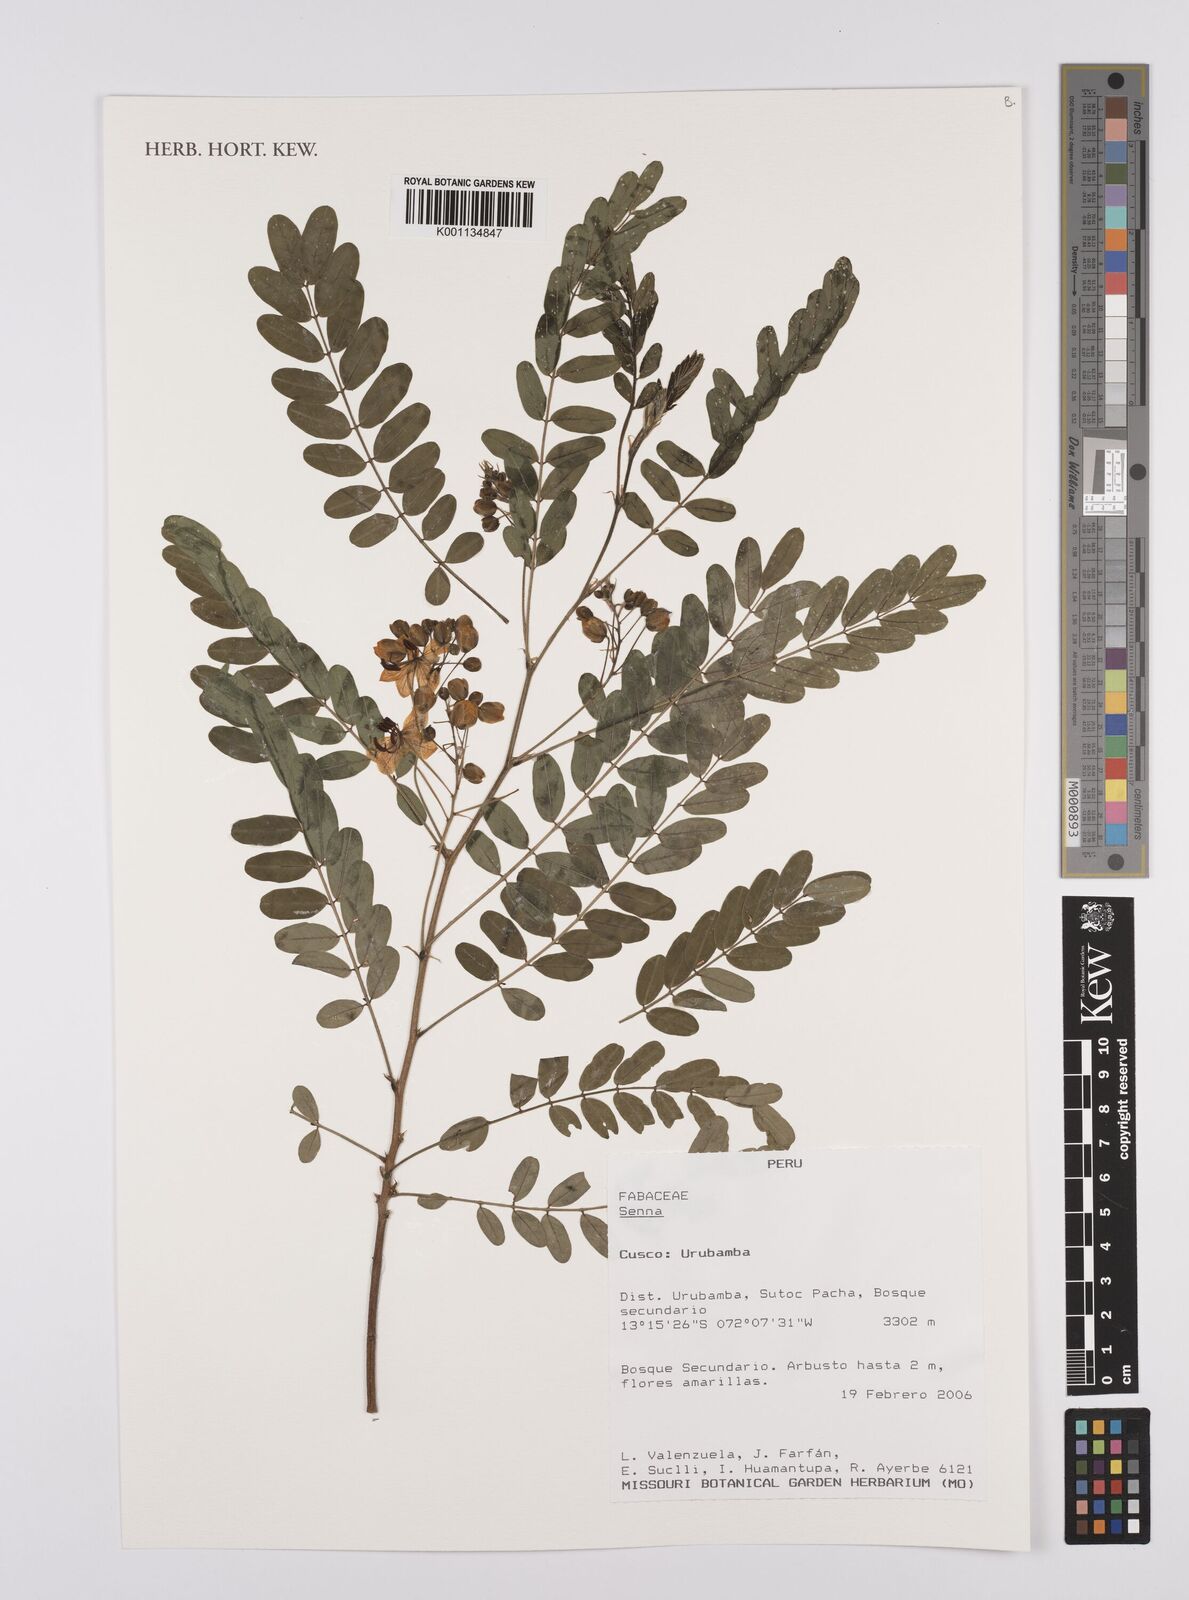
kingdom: Plantae
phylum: Tracheophyta
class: Magnoliopsida
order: Fabales
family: Fabaceae
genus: Senna
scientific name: Senna
